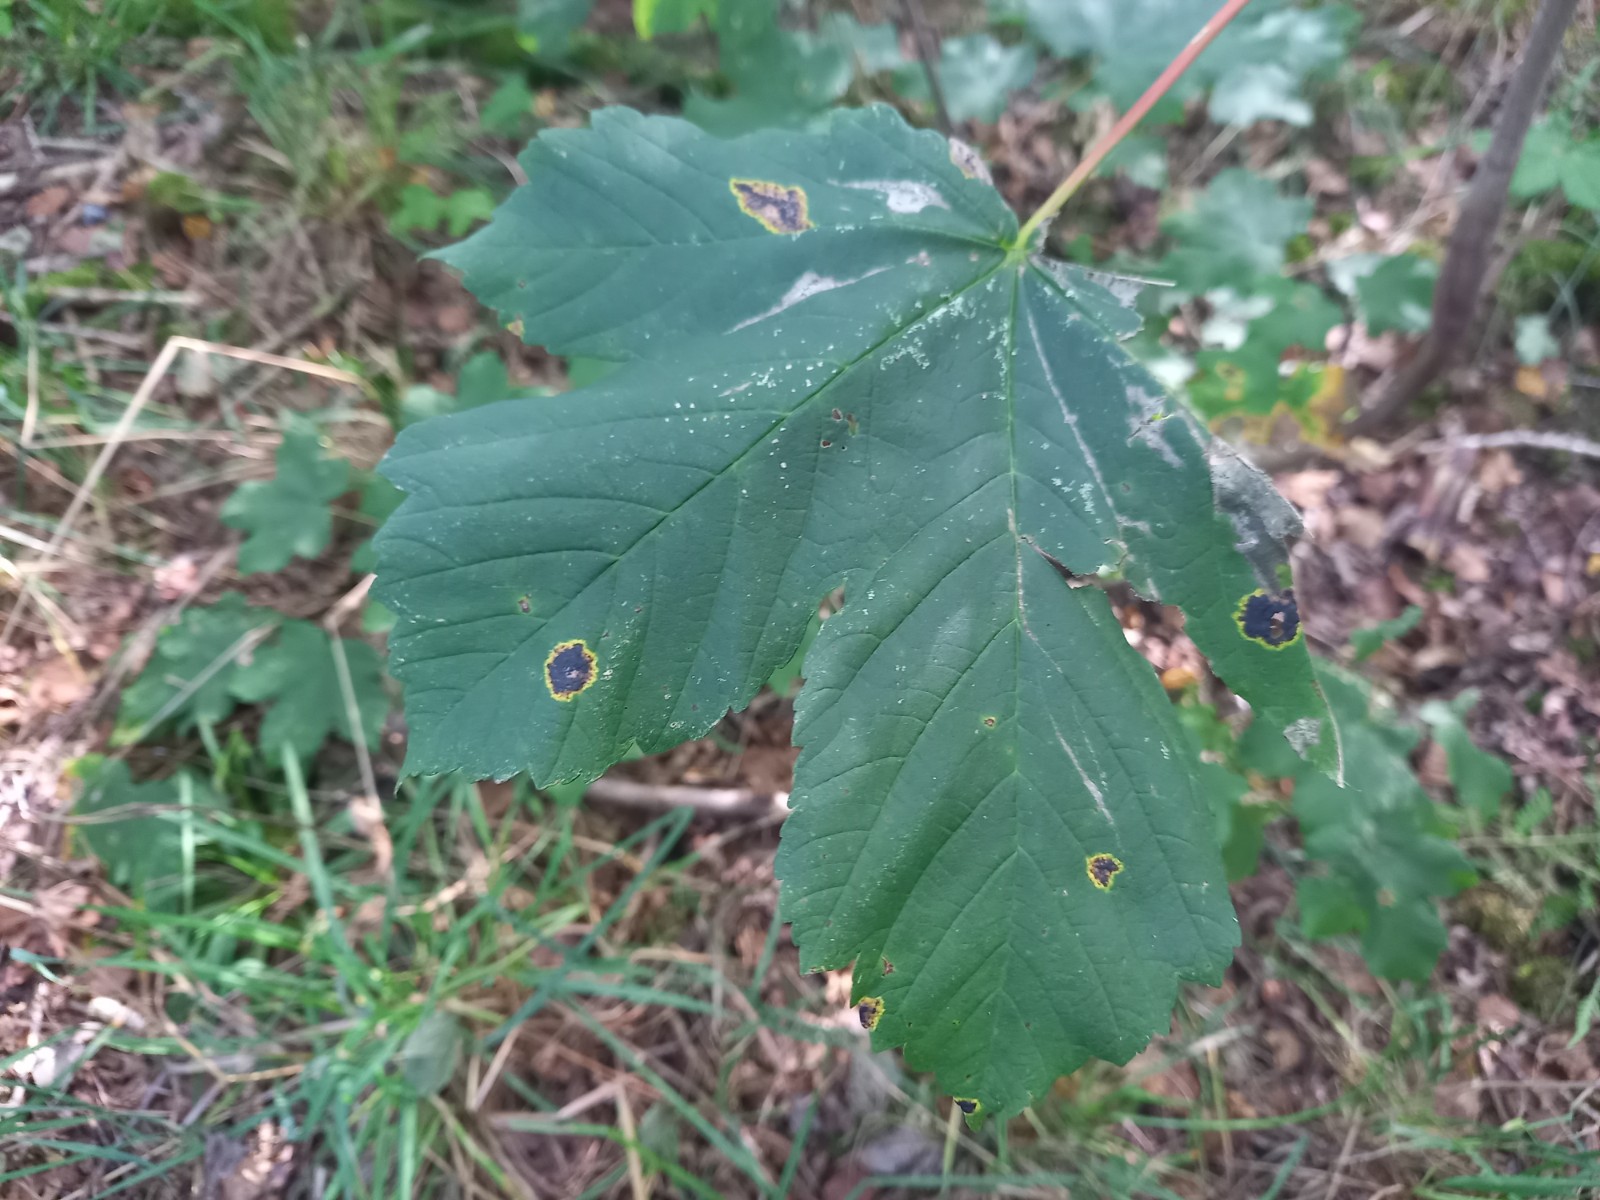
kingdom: Fungi
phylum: Ascomycota
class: Leotiomycetes
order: Rhytismatales
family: Rhytismataceae
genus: Rhytisma
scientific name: Rhytisma acerinum
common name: ahorn-rynkeplet
